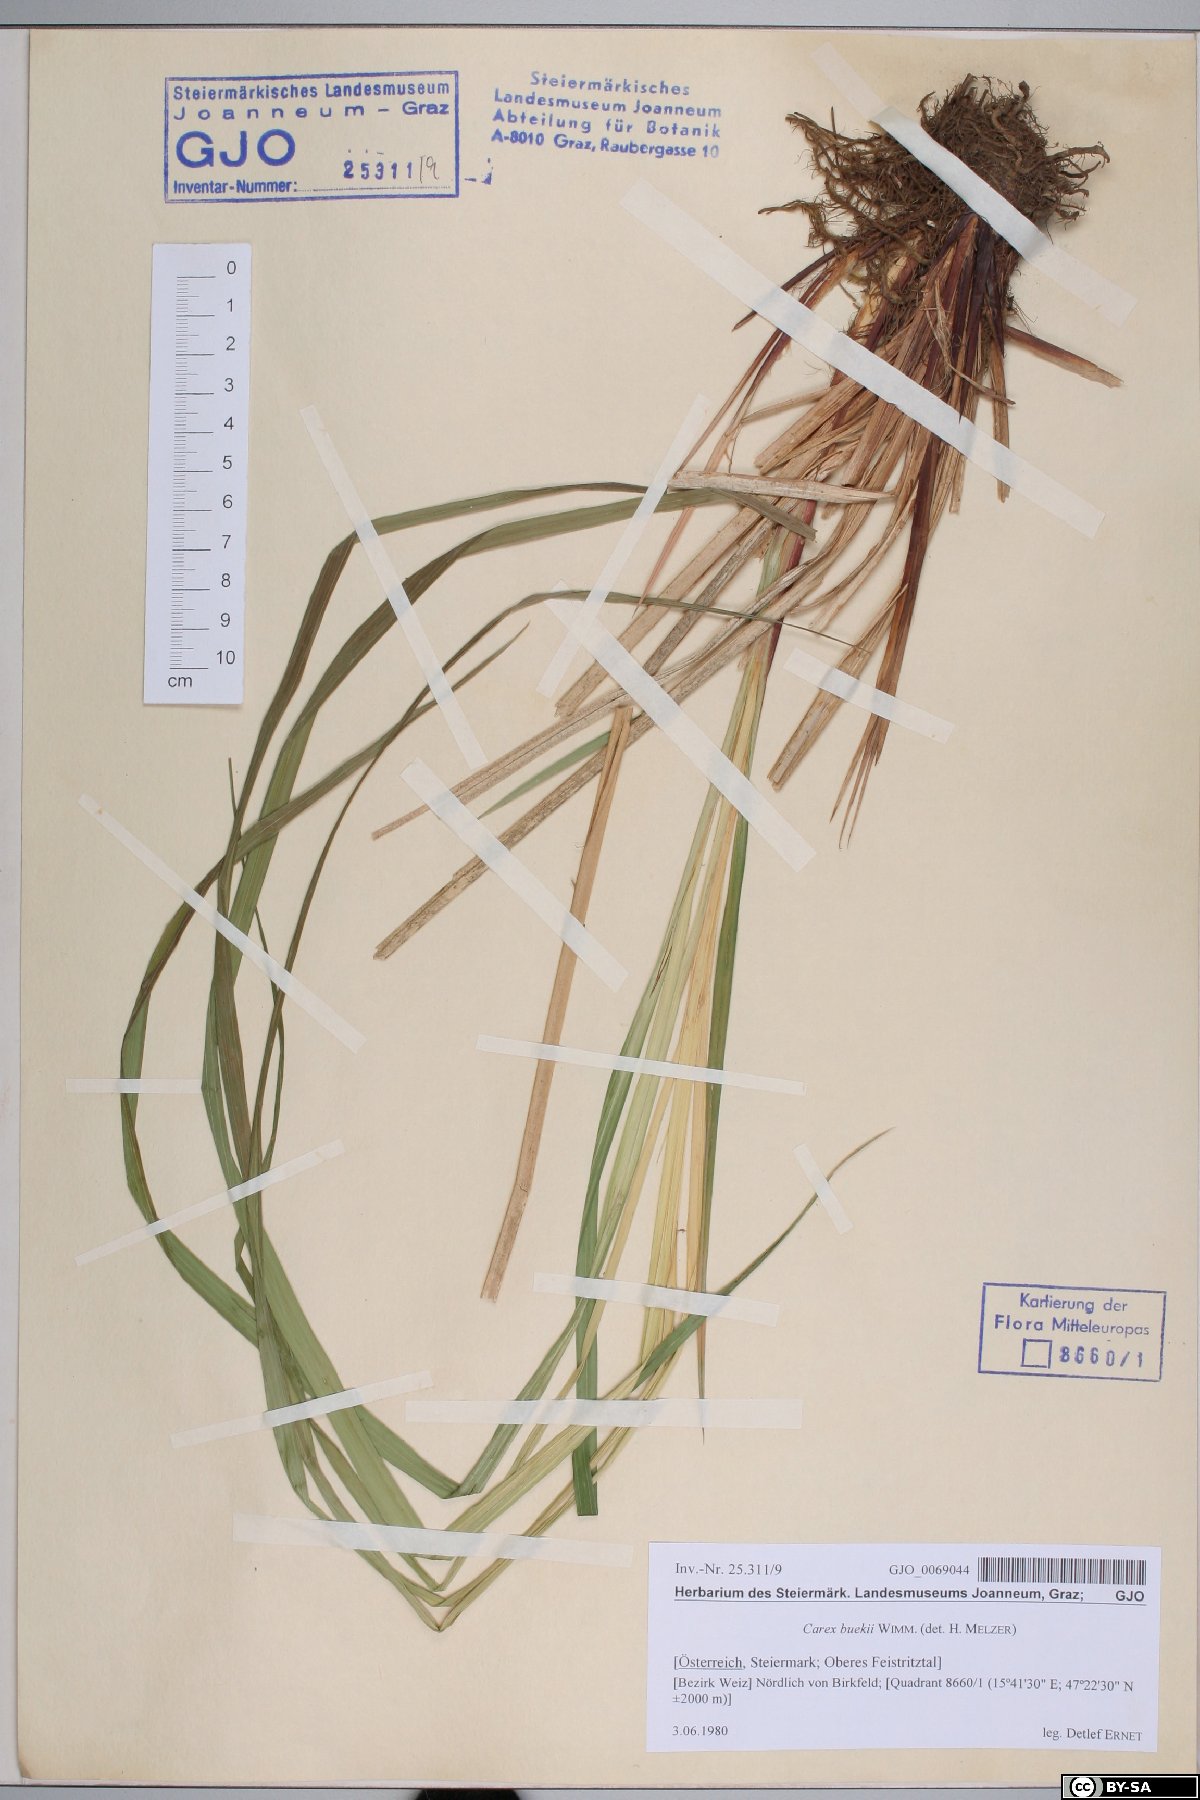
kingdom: Plantae
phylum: Tracheophyta
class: Liliopsida
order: Poales
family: Cyperaceae
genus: Carex
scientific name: Carex buekii
